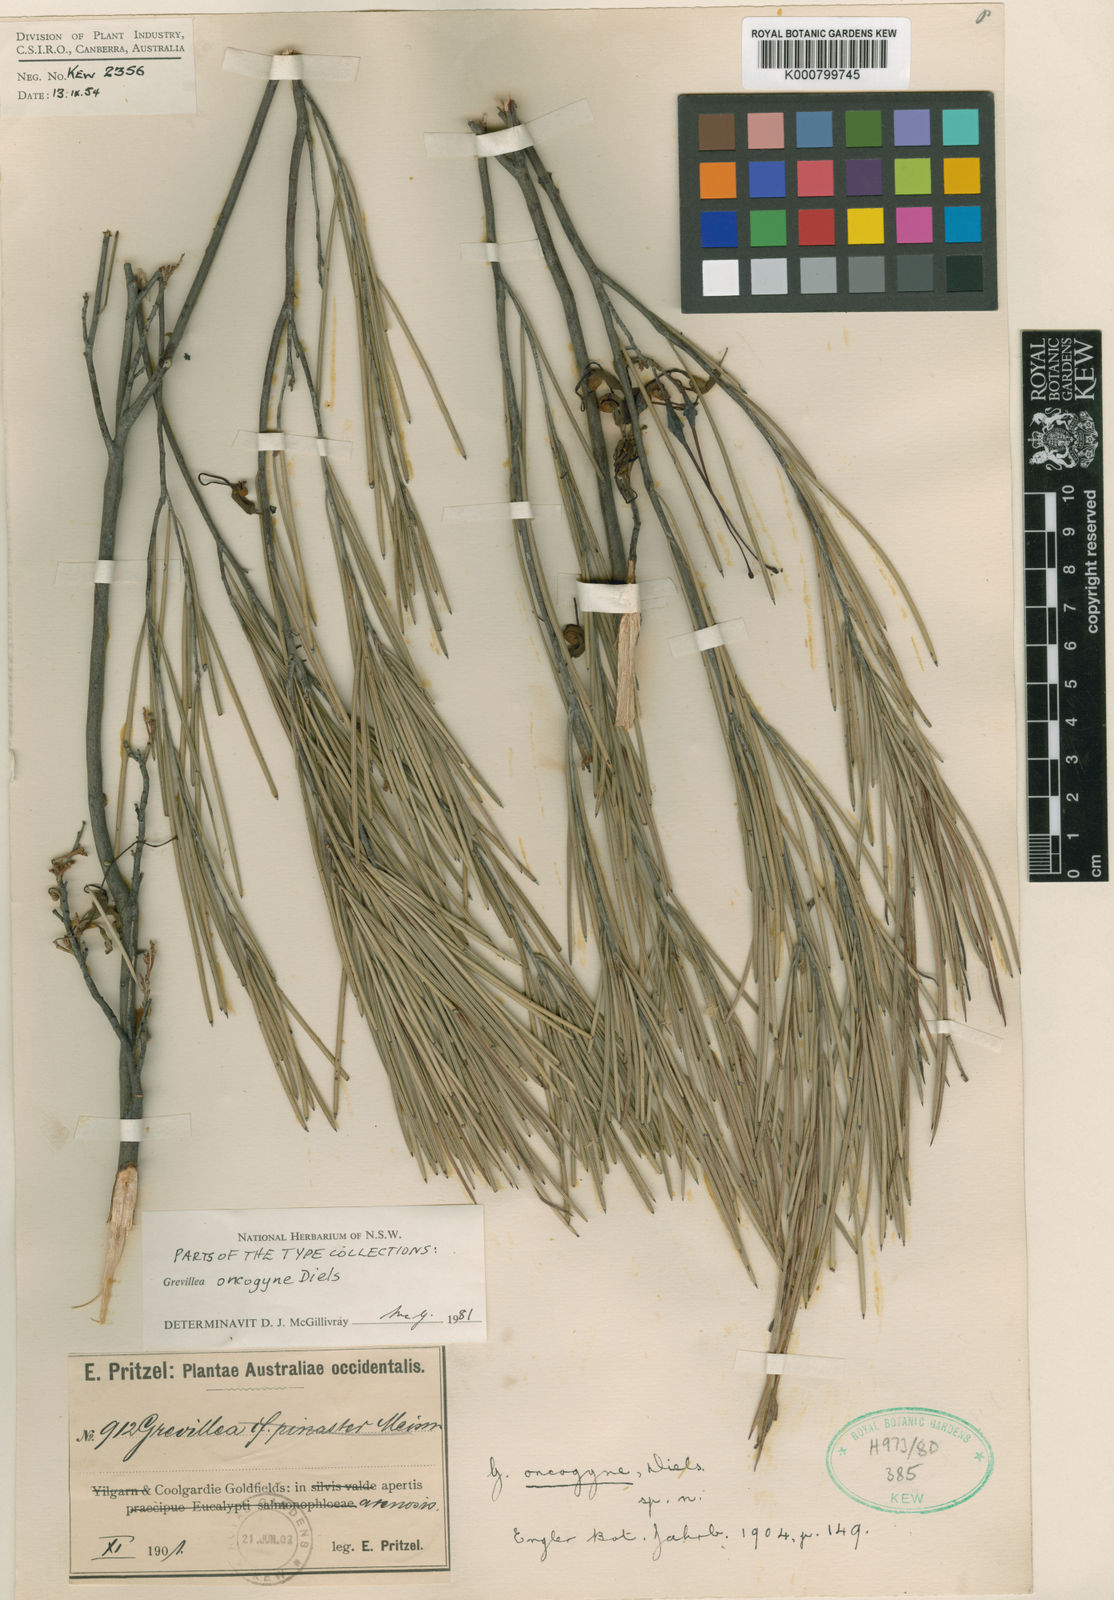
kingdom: Plantae
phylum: Tracheophyta
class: Magnoliopsida
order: Proteales
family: Proteaceae
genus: Grevillea
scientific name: Grevillea oncogyne
